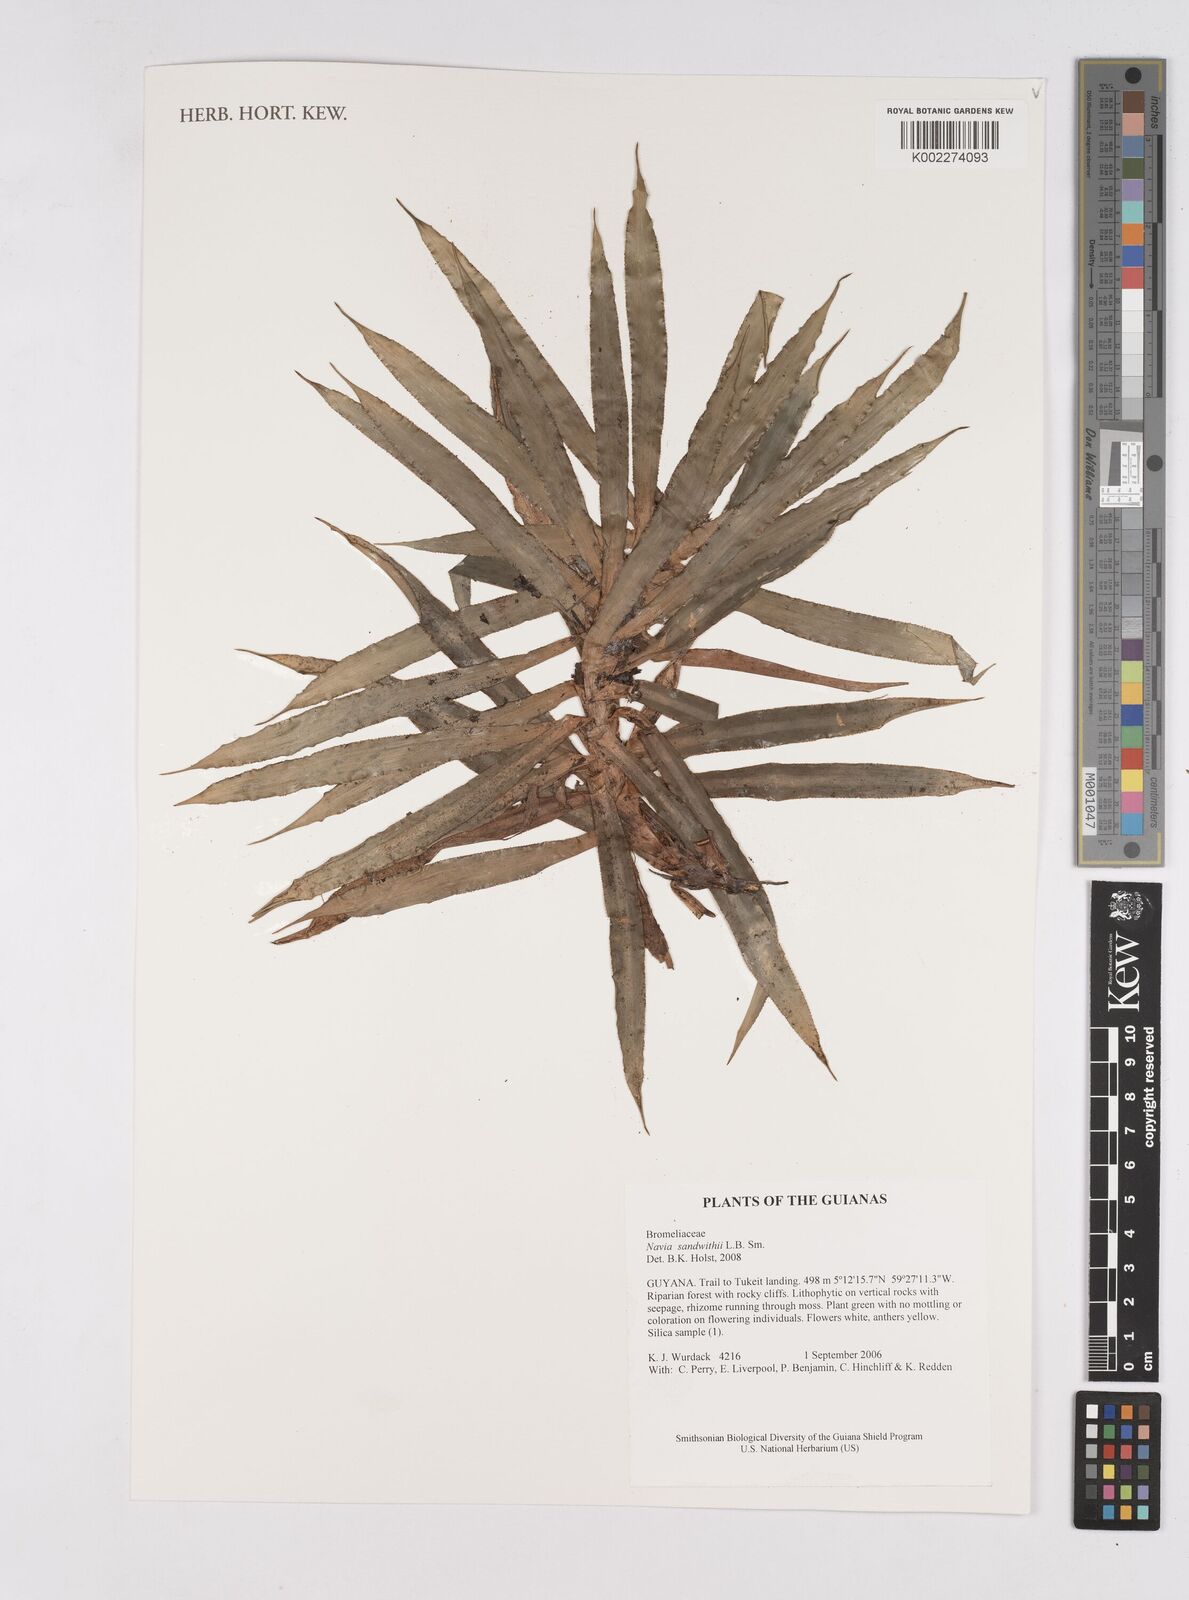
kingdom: Plantae
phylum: Tracheophyta
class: Liliopsida
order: Poales
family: Bromeliaceae
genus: Navia
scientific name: Navia sandwithii
